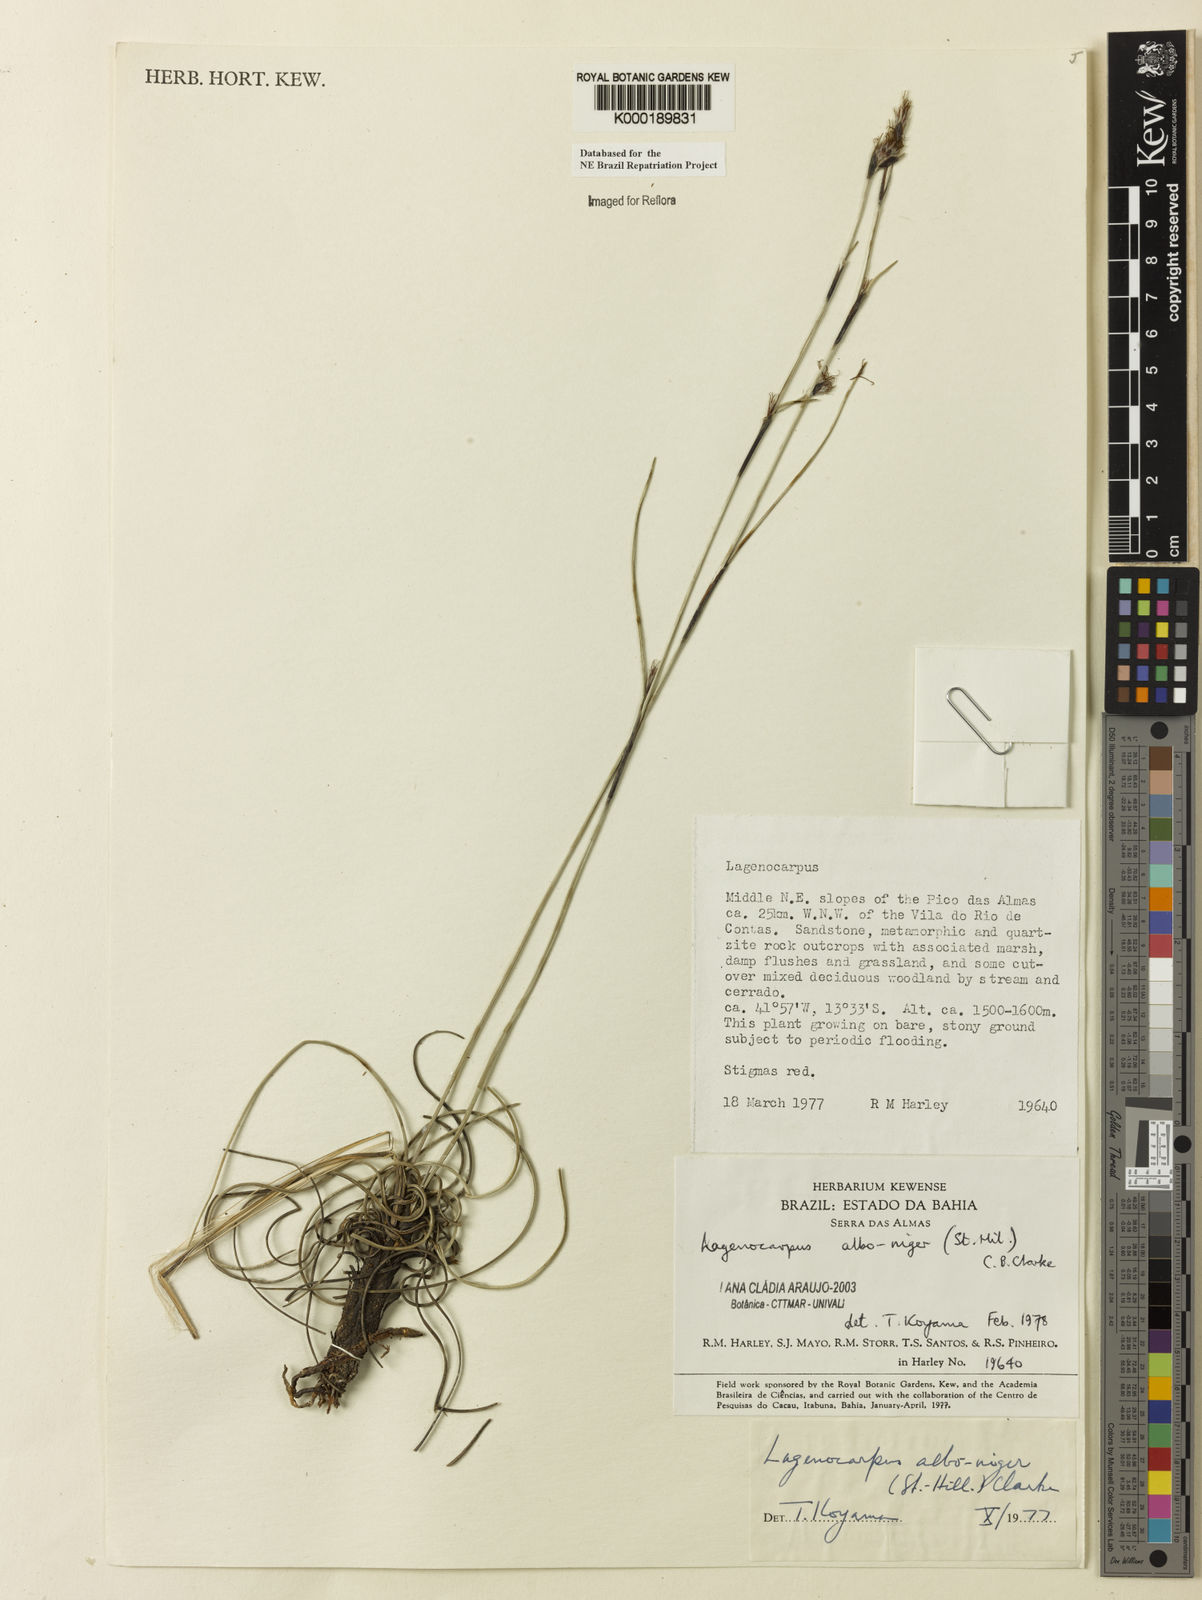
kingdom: Plantae
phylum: Tracheophyta
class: Liliopsida
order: Poales
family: Cyperaceae
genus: Lagenocarpus
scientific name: Lagenocarpus alboniger
